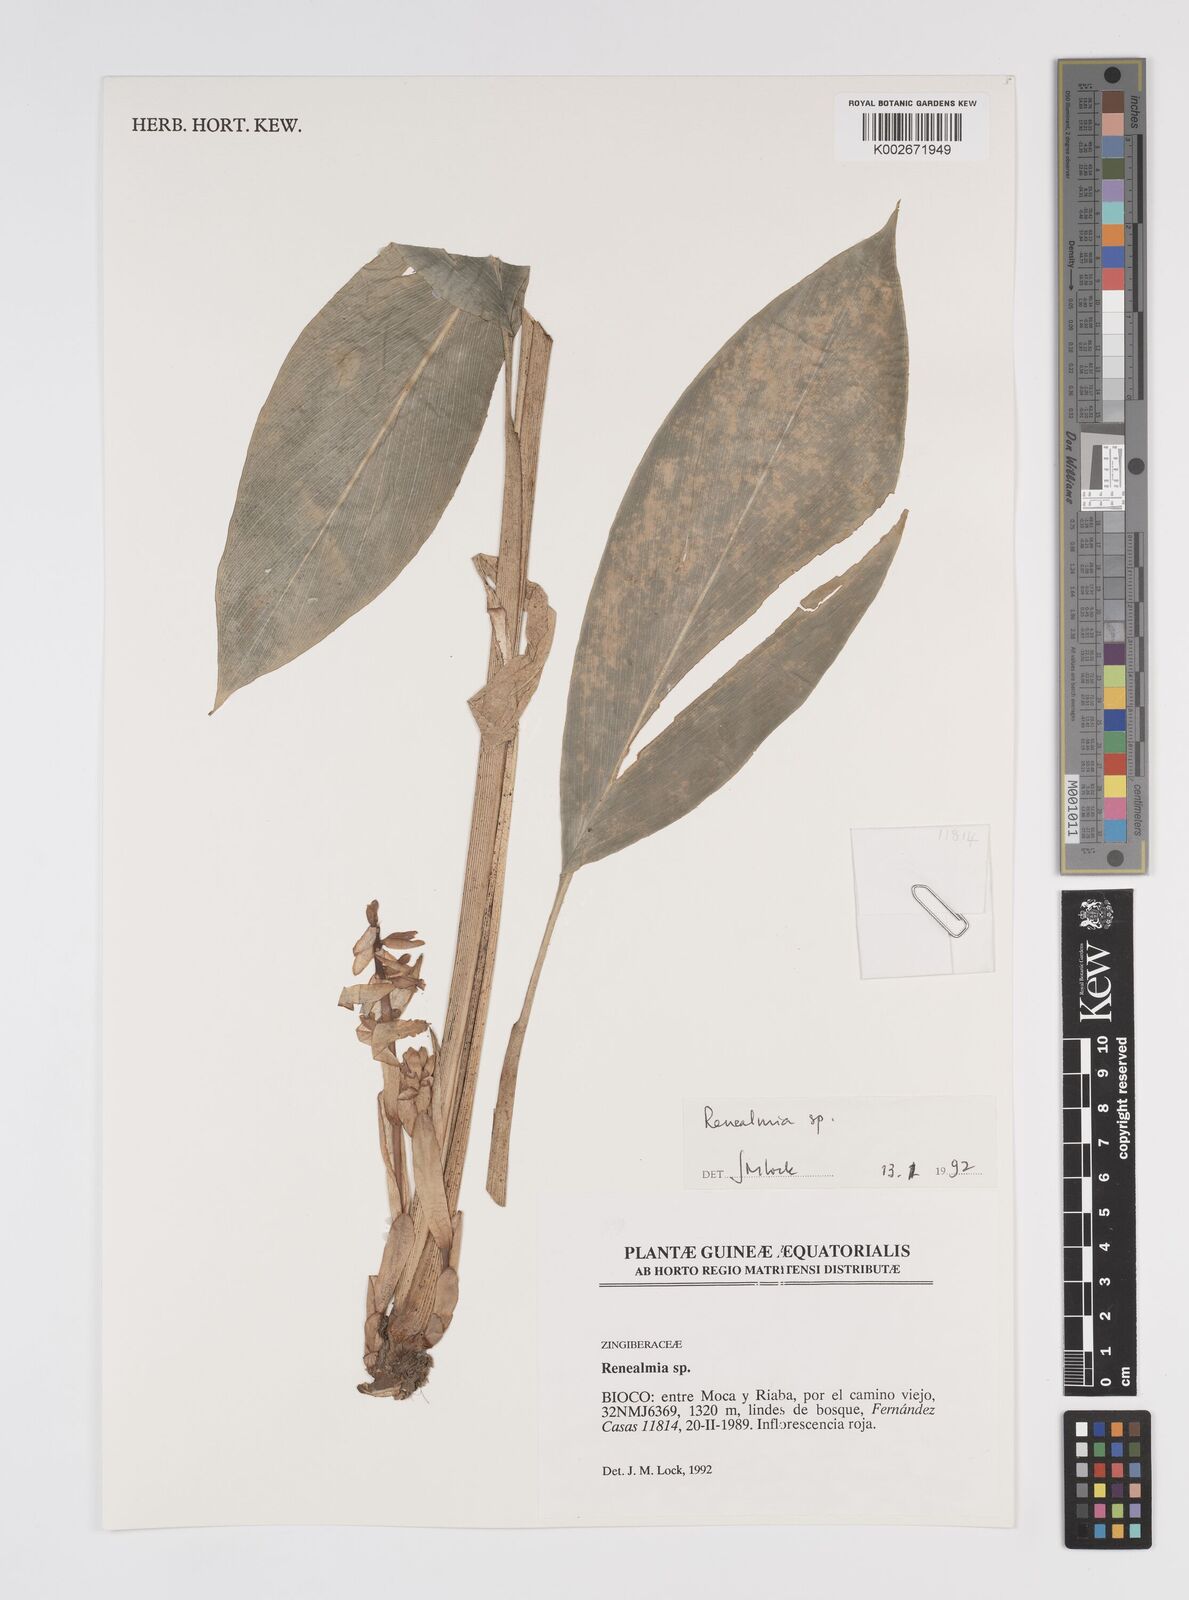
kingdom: Plantae
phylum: Tracheophyta
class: Liliopsida
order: Zingiberales
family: Zingiberaceae
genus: Renealmia
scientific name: Renealmia
